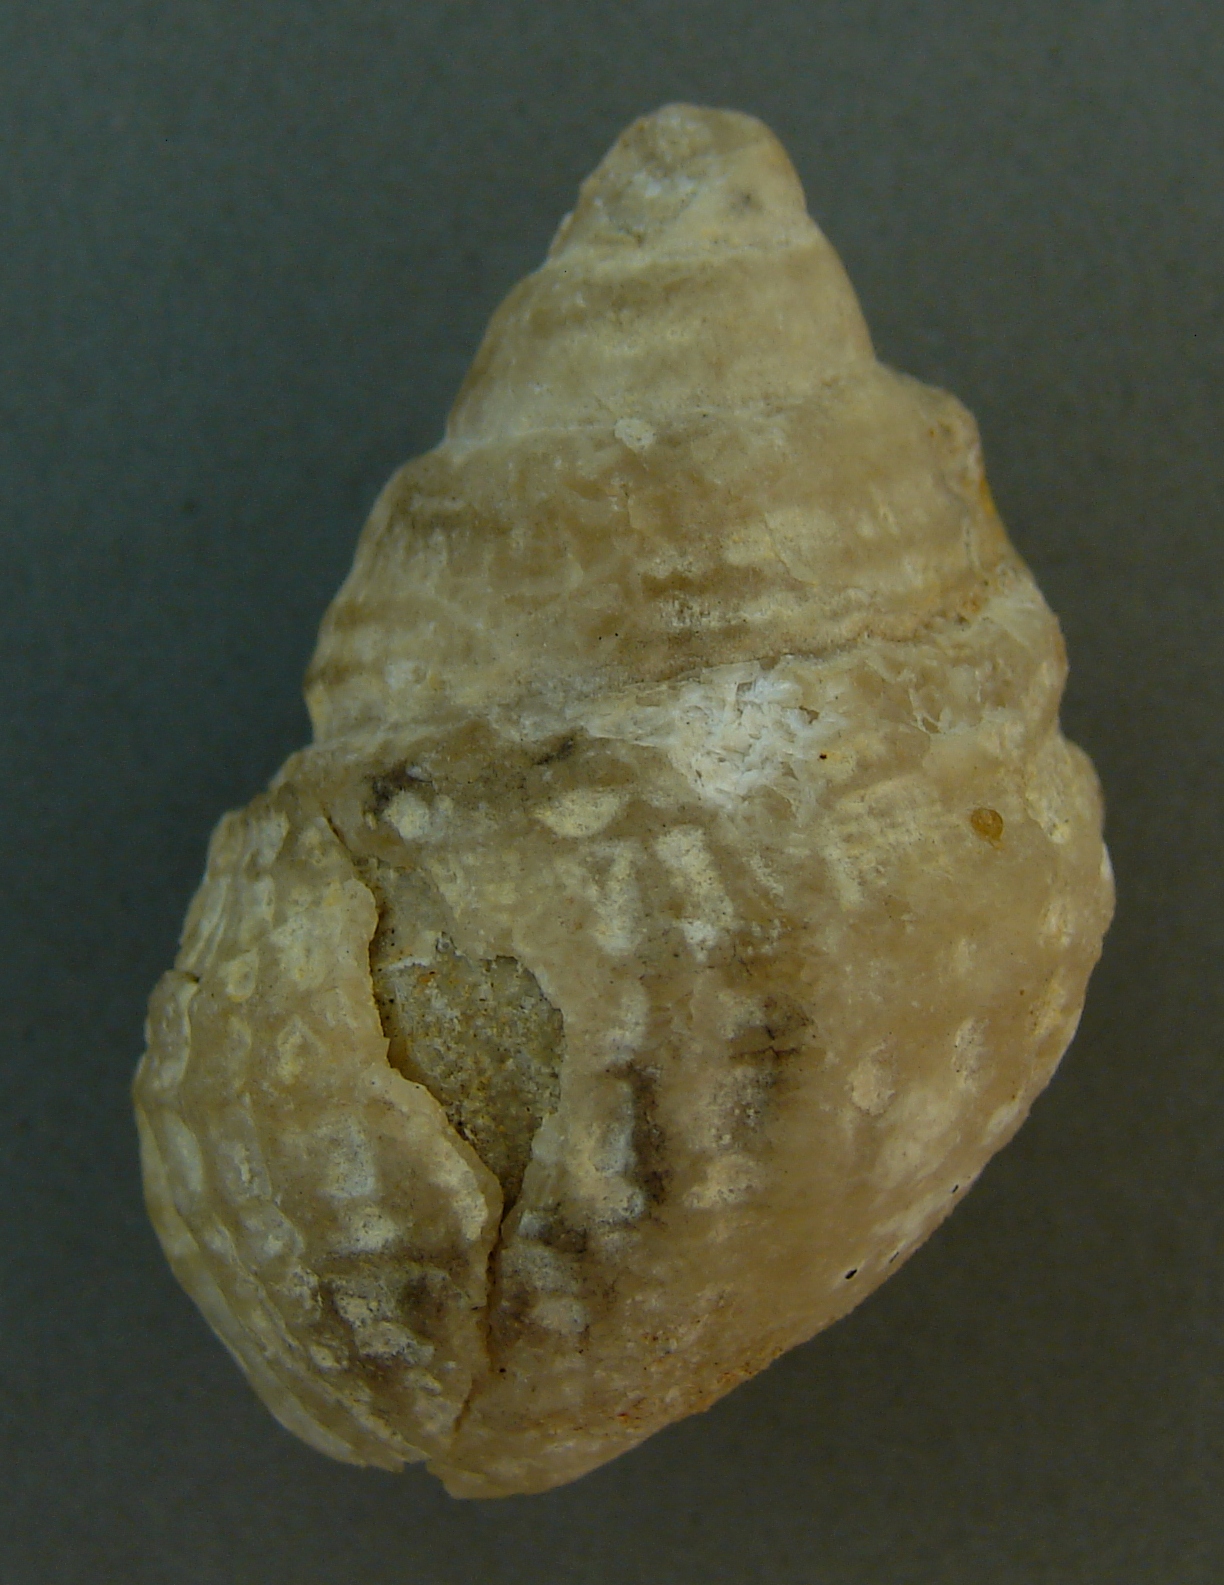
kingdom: Animalia
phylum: Mollusca
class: Gastropoda
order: Neogastropoda
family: Purpurinidae
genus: Microschiza
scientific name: Microschiza Turbo semiornatus
